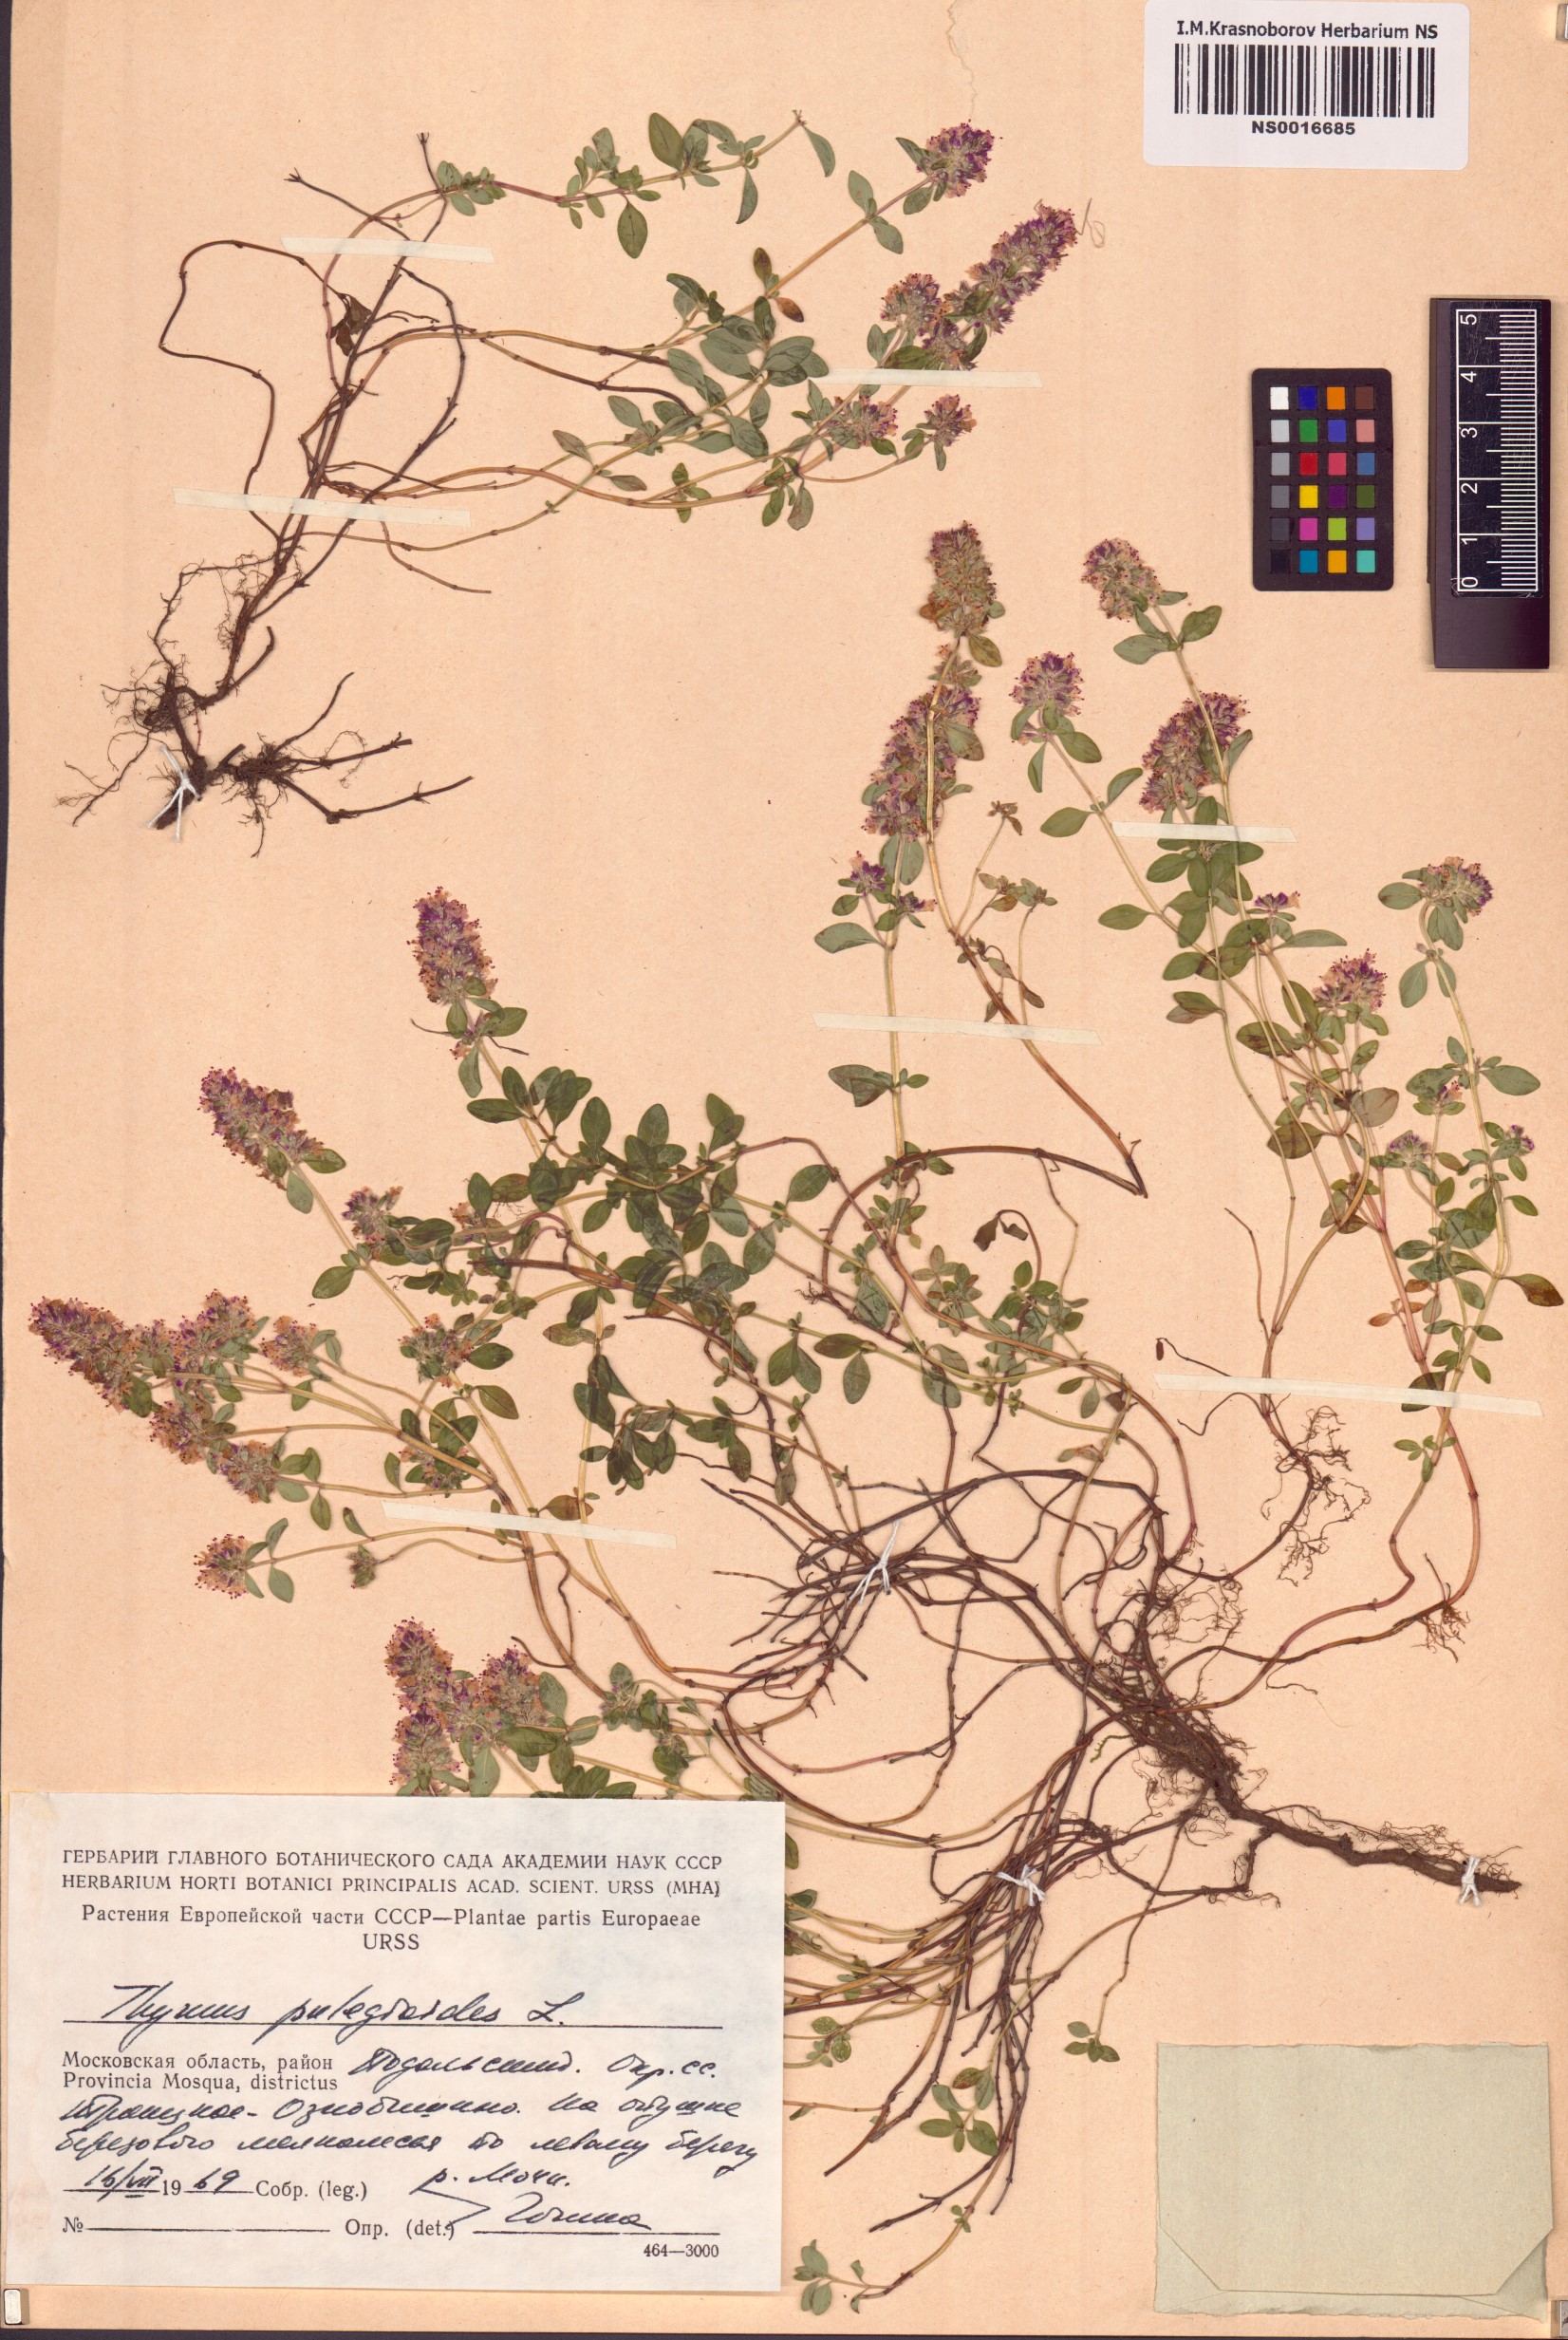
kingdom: Plantae
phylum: Tracheophyta
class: Magnoliopsida
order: Lamiales
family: Lamiaceae
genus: Thymus
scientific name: Thymus pulegioides
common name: Large thyme
